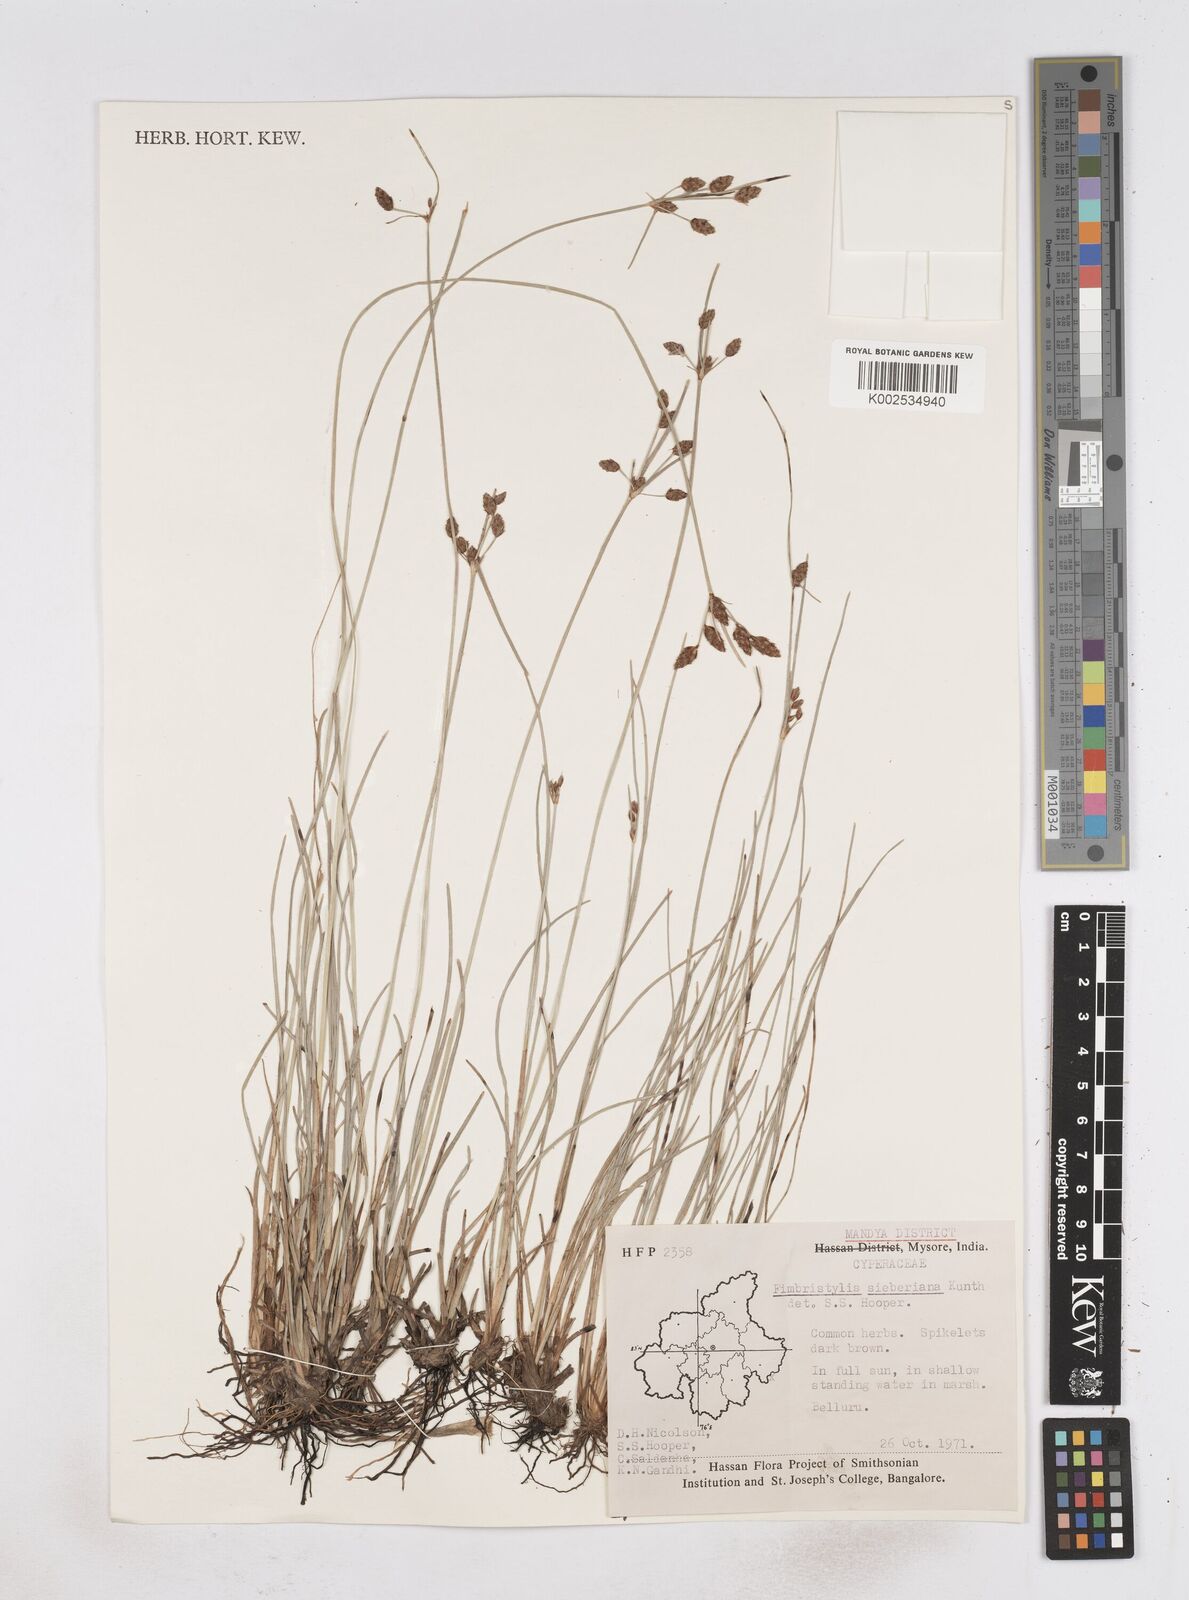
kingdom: Plantae
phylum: Tracheophyta
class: Liliopsida
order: Poales
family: Cyperaceae
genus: Fimbristylis
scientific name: Fimbristylis ferruginea
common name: West indian fimbry
